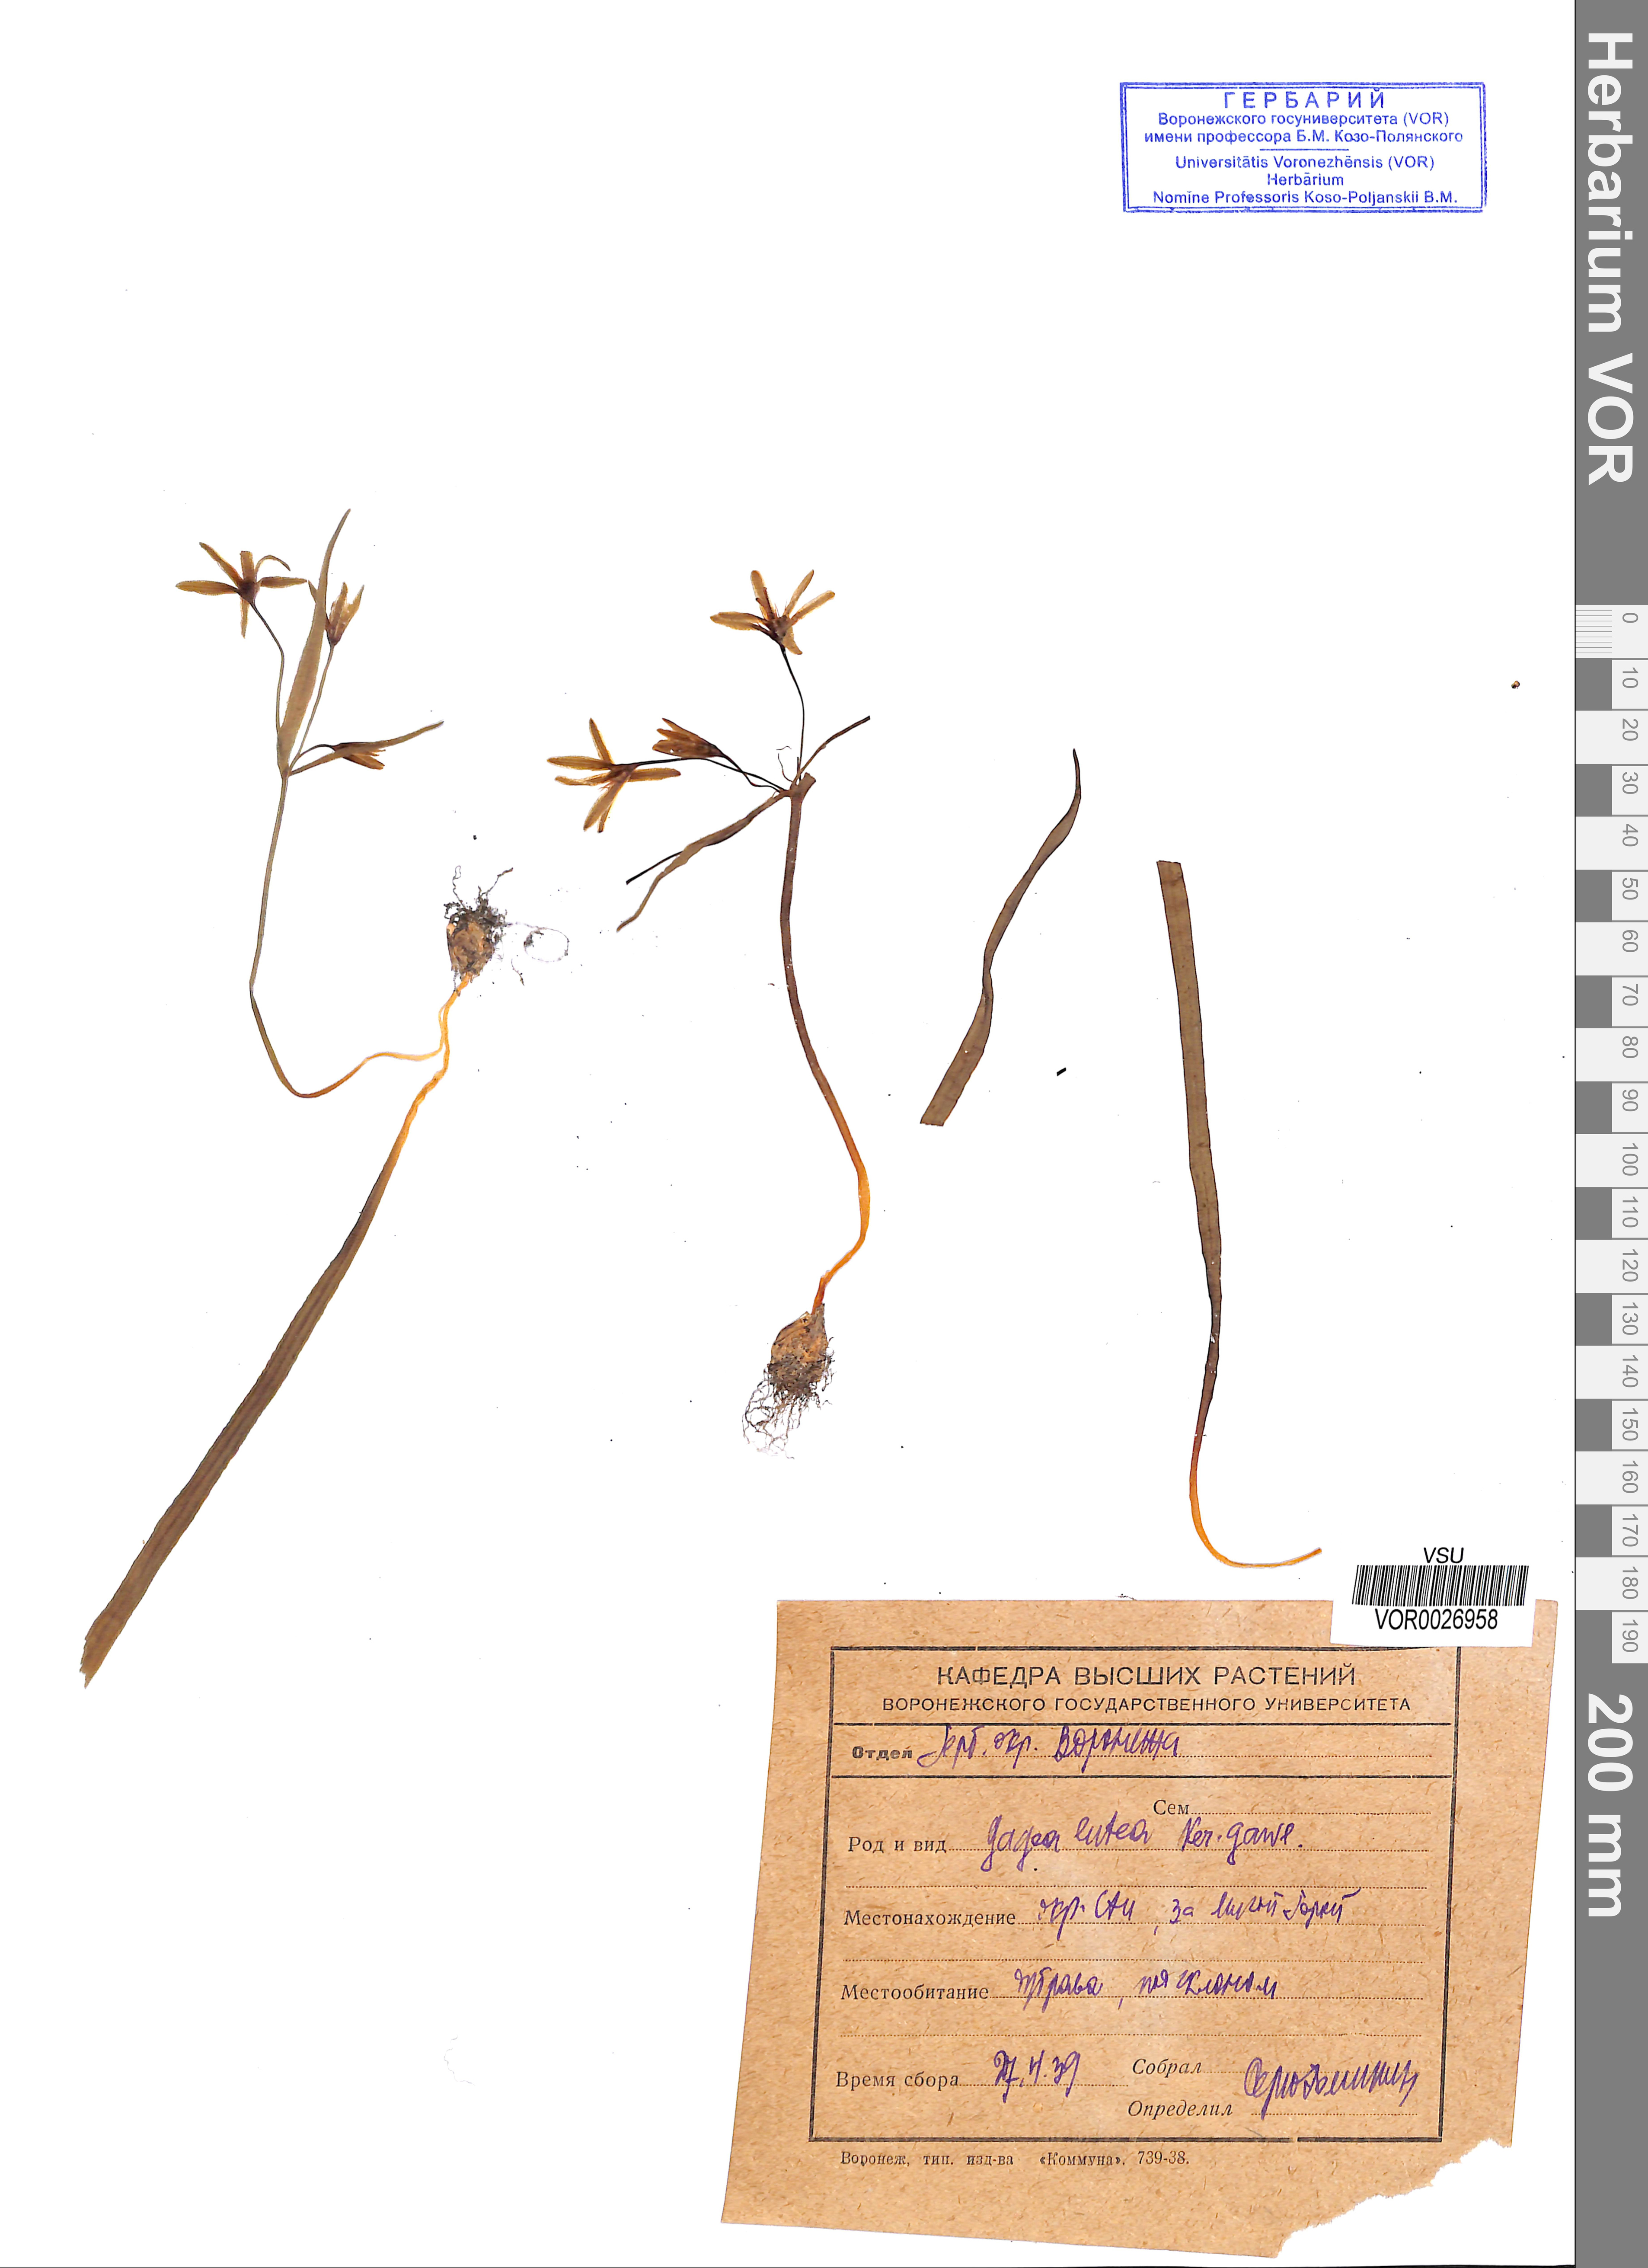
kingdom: Plantae
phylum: Tracheophyta
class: Liliopsida
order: Liliales
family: Liliaceae
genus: Gagea
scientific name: Gagea lutea
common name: Yellow star-of-bethlehem
